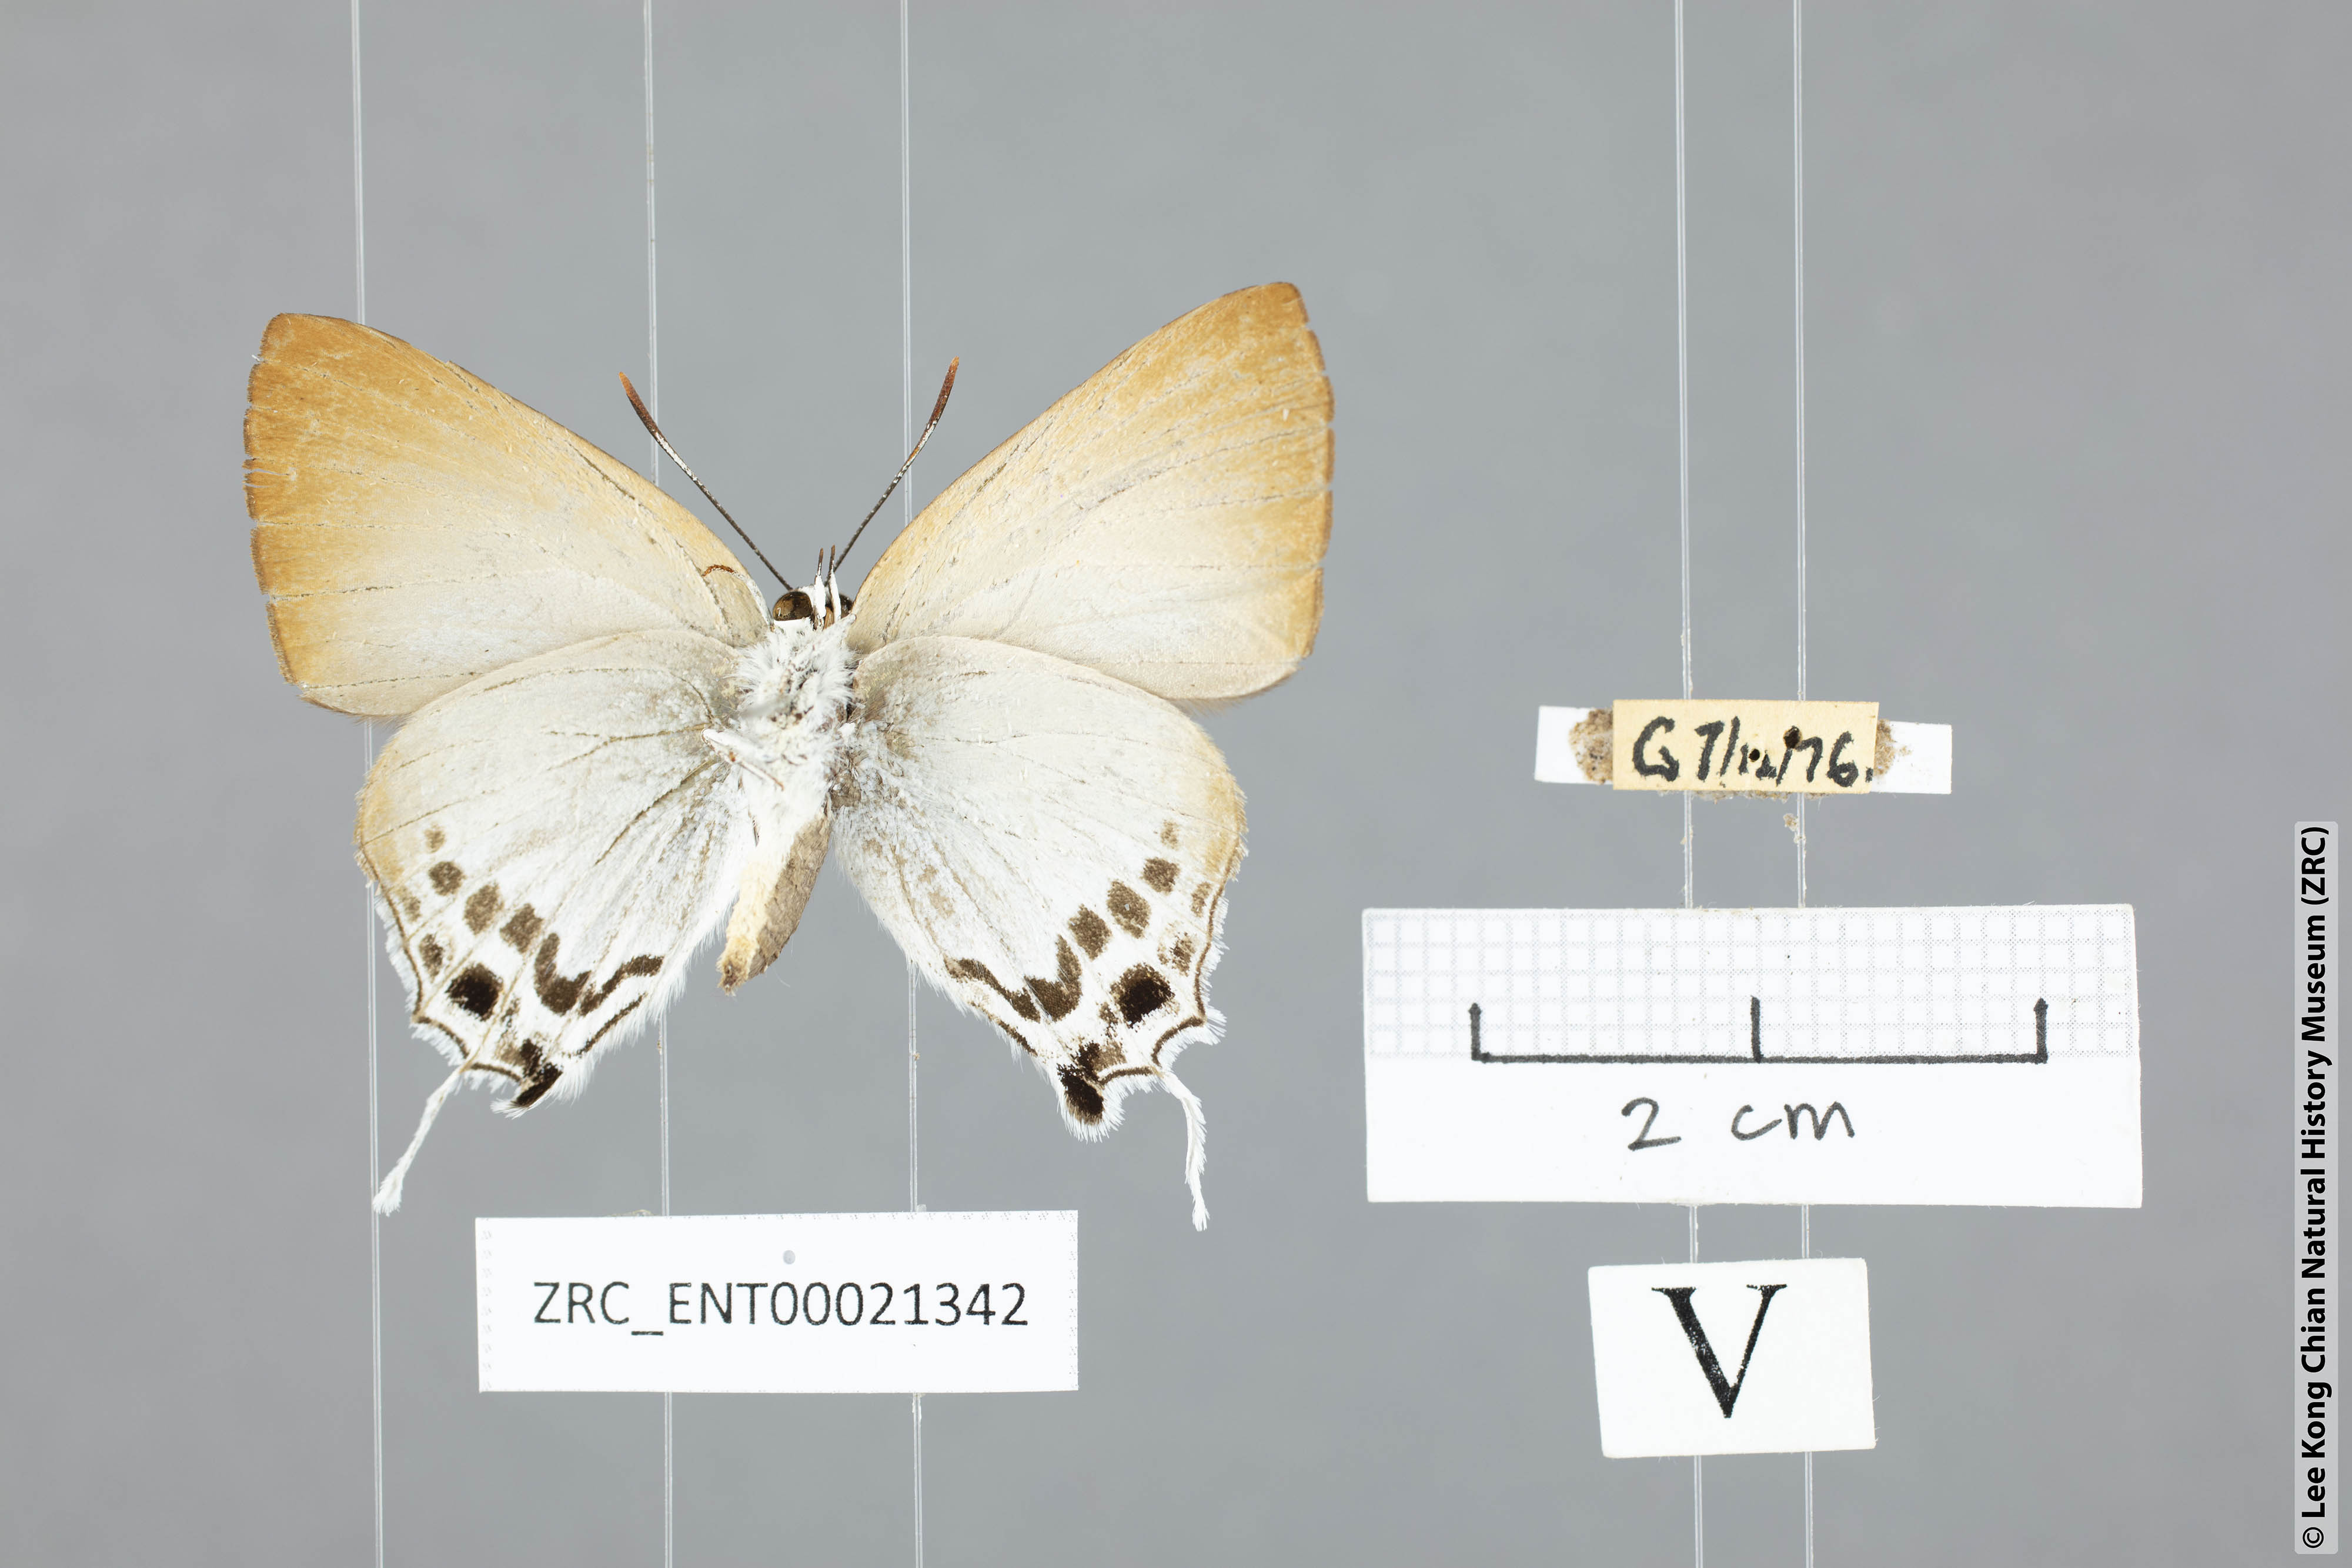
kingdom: Animalia
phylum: Arthropoda
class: Insecta
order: Lepidoptera
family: Lycaenidae
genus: Deudorix
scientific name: Deudorix
